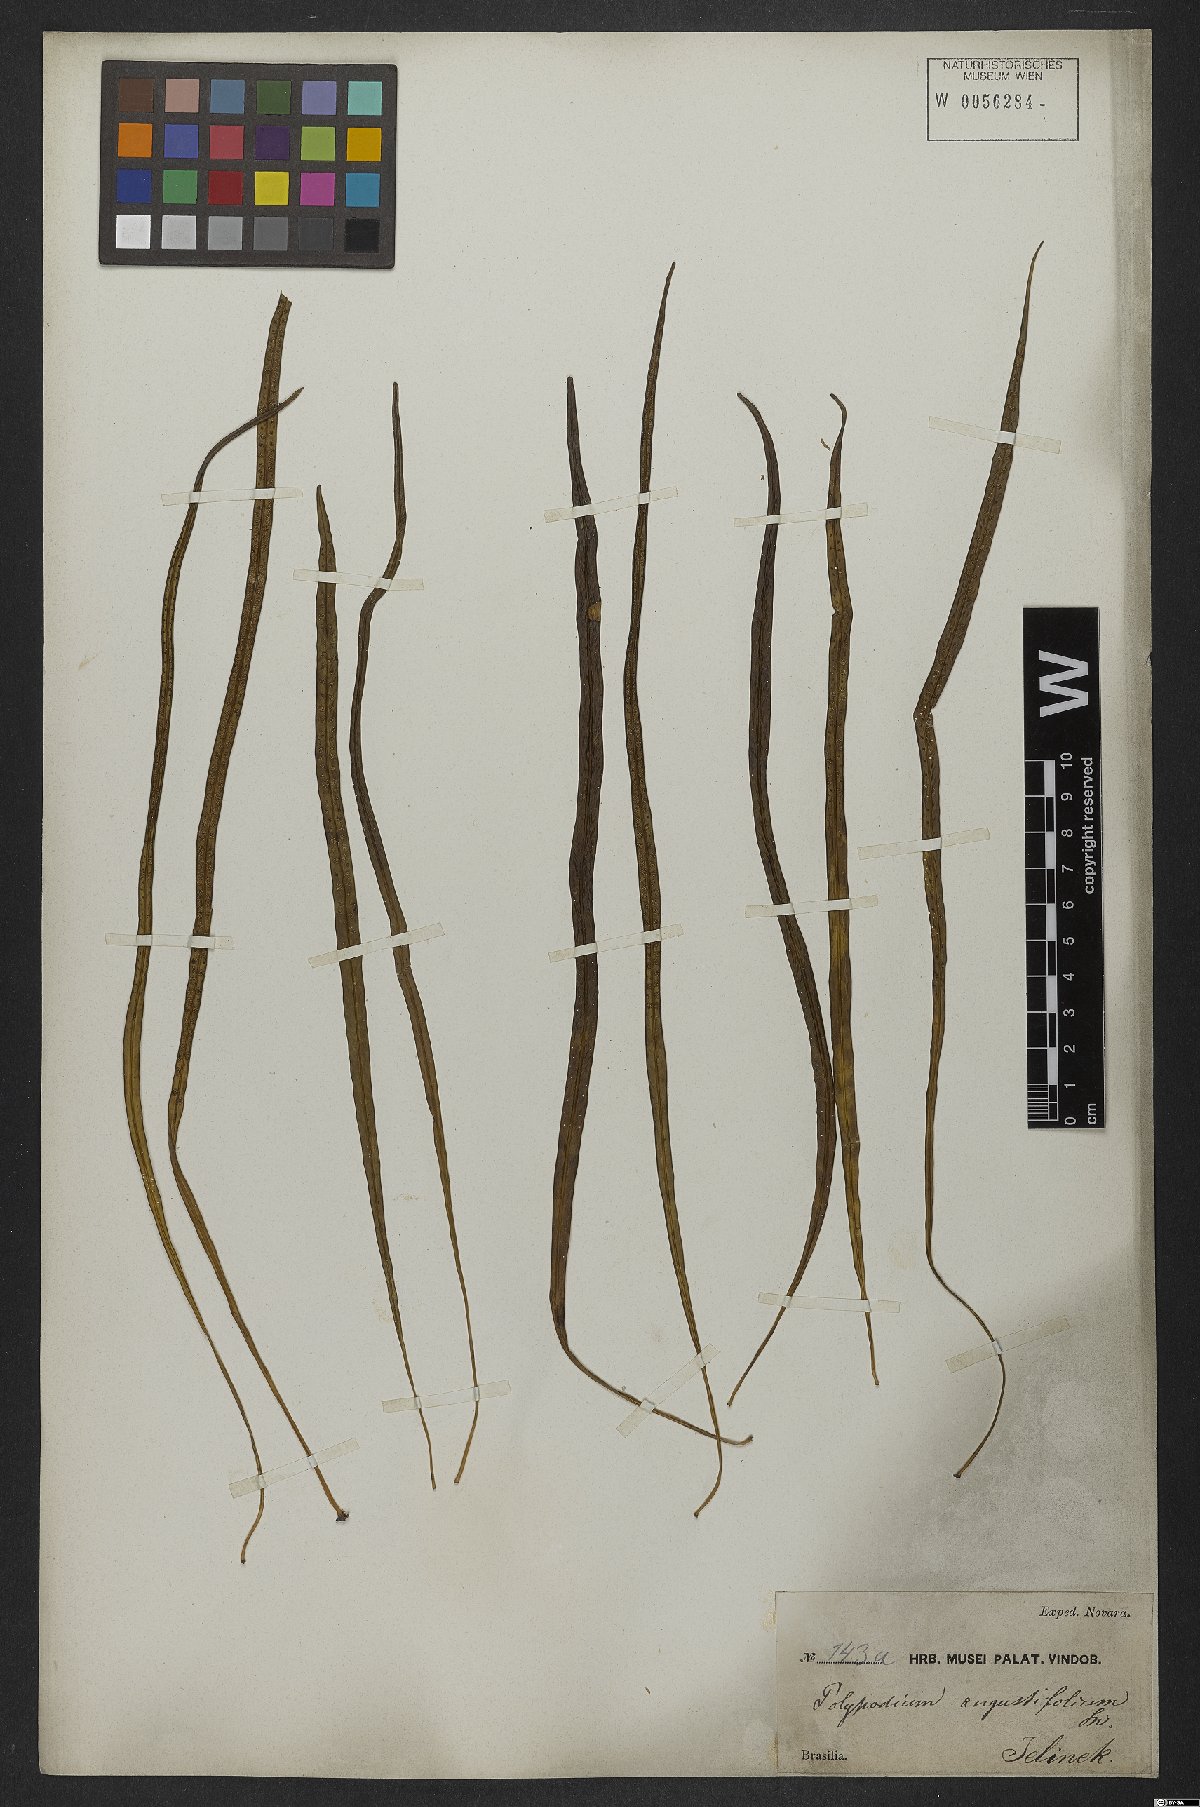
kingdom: Plantae
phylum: Tracheophyta
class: Polypodiopsida
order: Polypodiales
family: Polypodiaceae
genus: Campyloneurum
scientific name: Campyloneurum angustifolium
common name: Narrow-leaf strap fern
